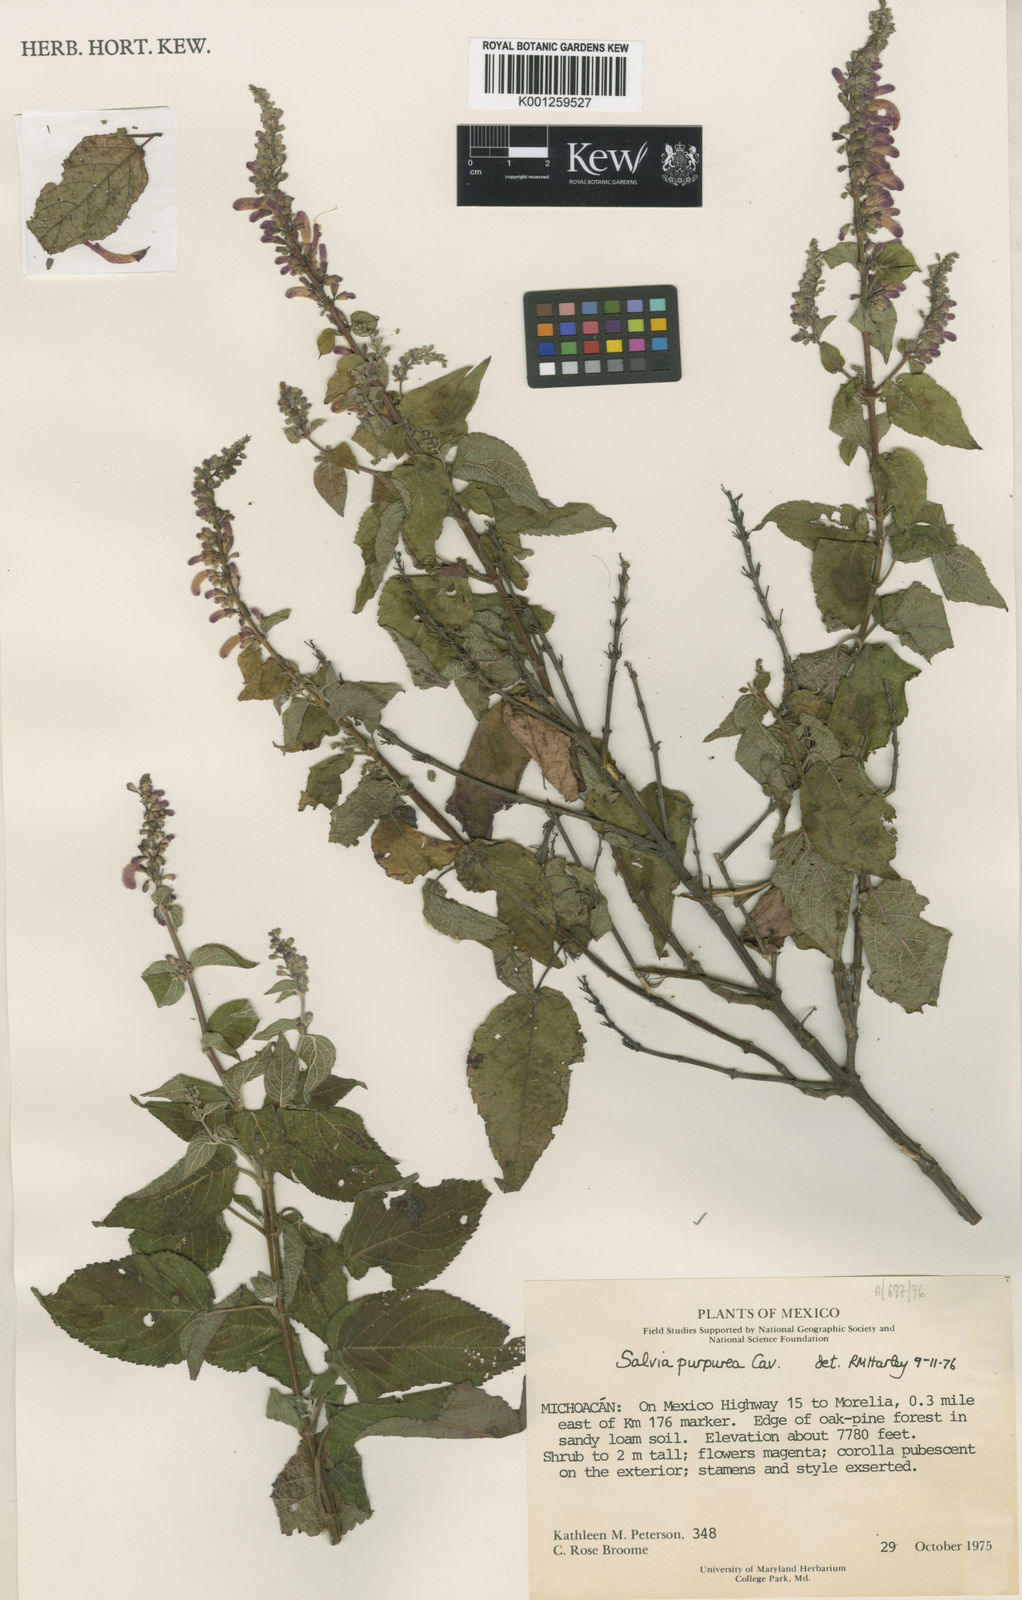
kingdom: Plantae
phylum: Tracheophyta
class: Magnoliopsida
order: Lamiales
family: Lamiaceae
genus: Salvia
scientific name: Salvia purpurea
